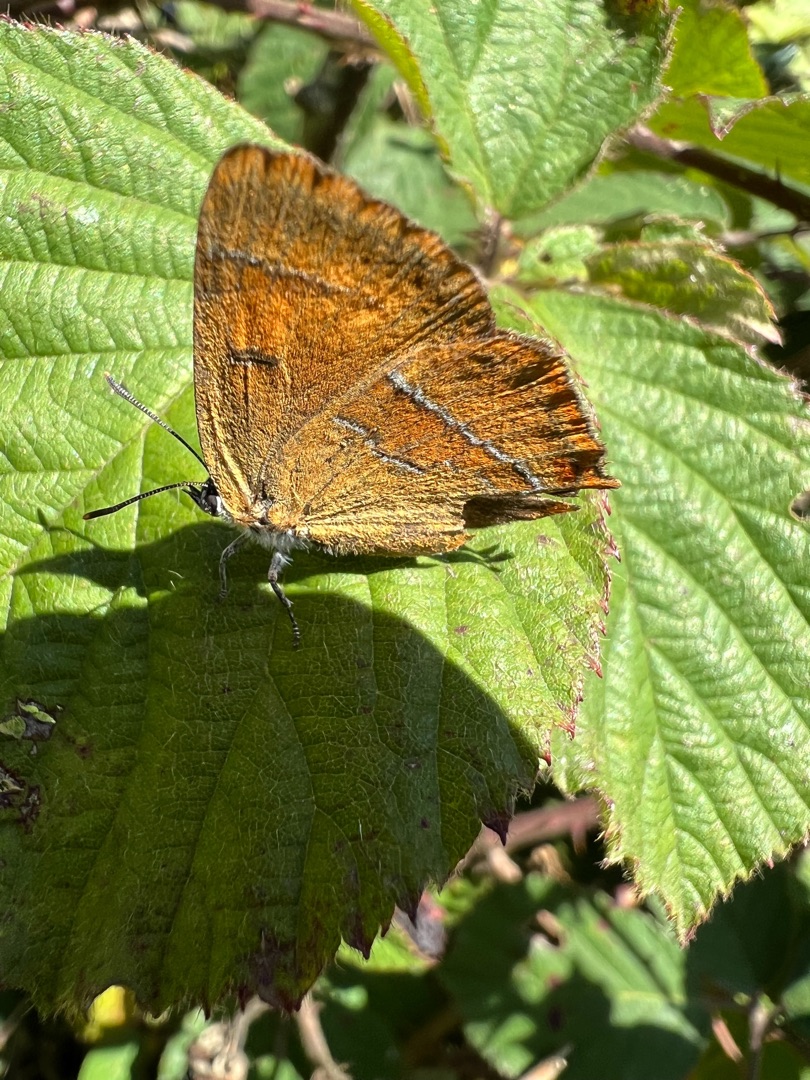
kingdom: Animalia
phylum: Arthropoda
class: Insecta
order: Lepidoptera
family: Lycaenidae
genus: Thecla
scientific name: Thecla betulae
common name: Guldhale
